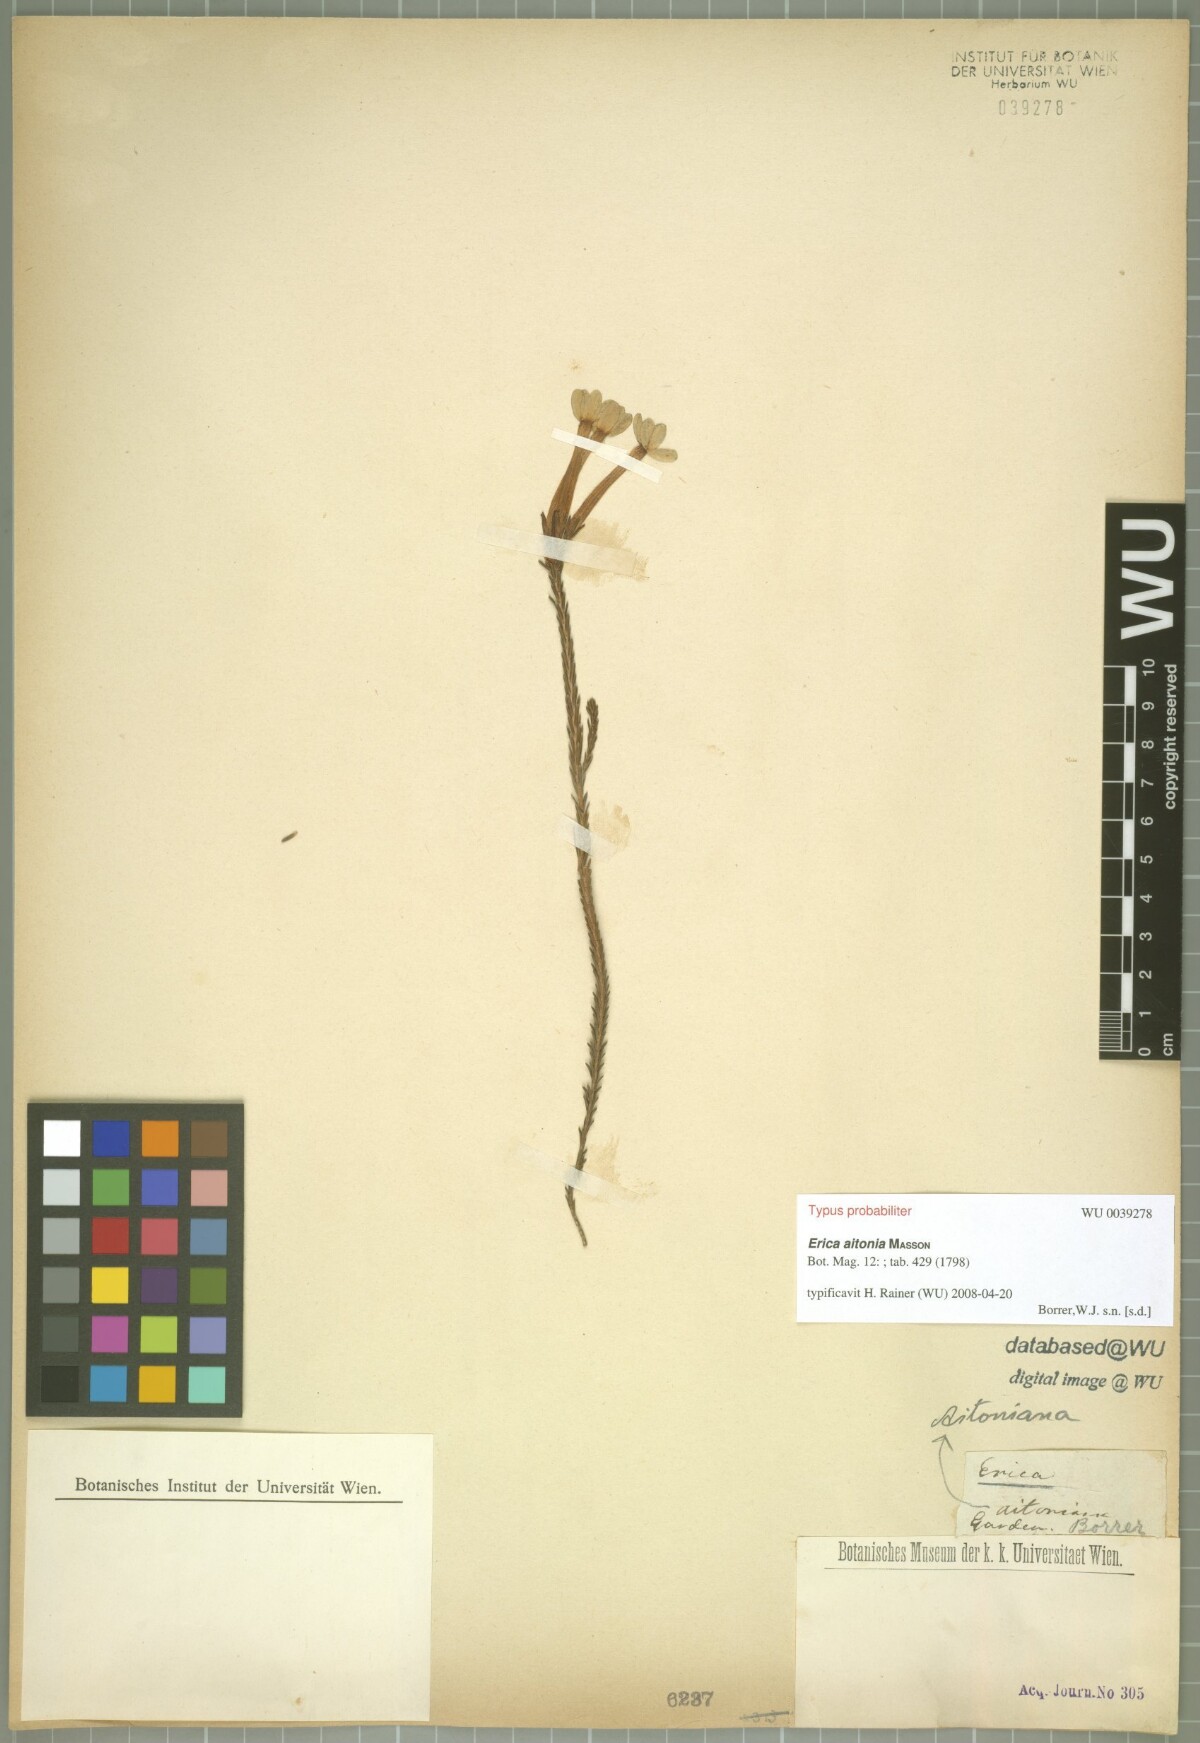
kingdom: Plantae
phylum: Tracheophyta
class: Magnoliopsida
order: Ericales
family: Ericaceae
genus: Erica
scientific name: Erica jasminiflora
